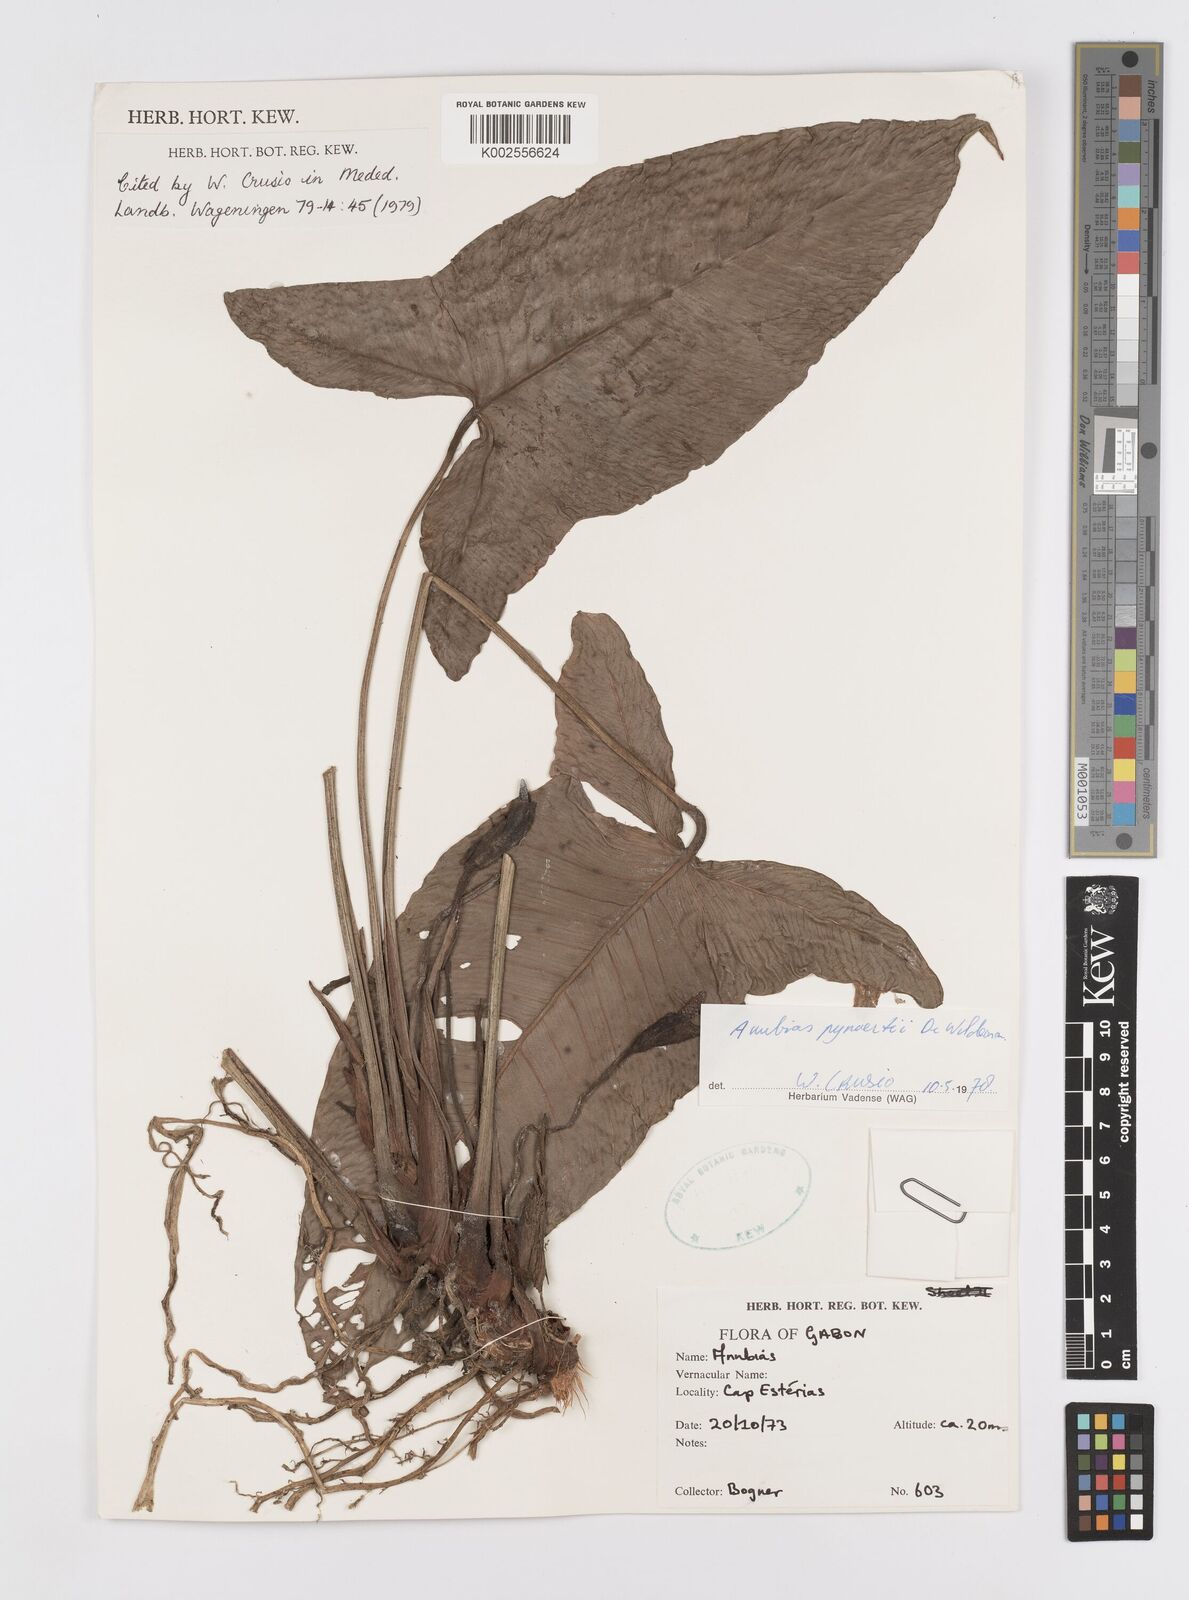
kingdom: Plantae
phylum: Tracheophyta
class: Liliopsida
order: Alismatales
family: Araceae
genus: Anubias
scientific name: Anubias pynaertii
